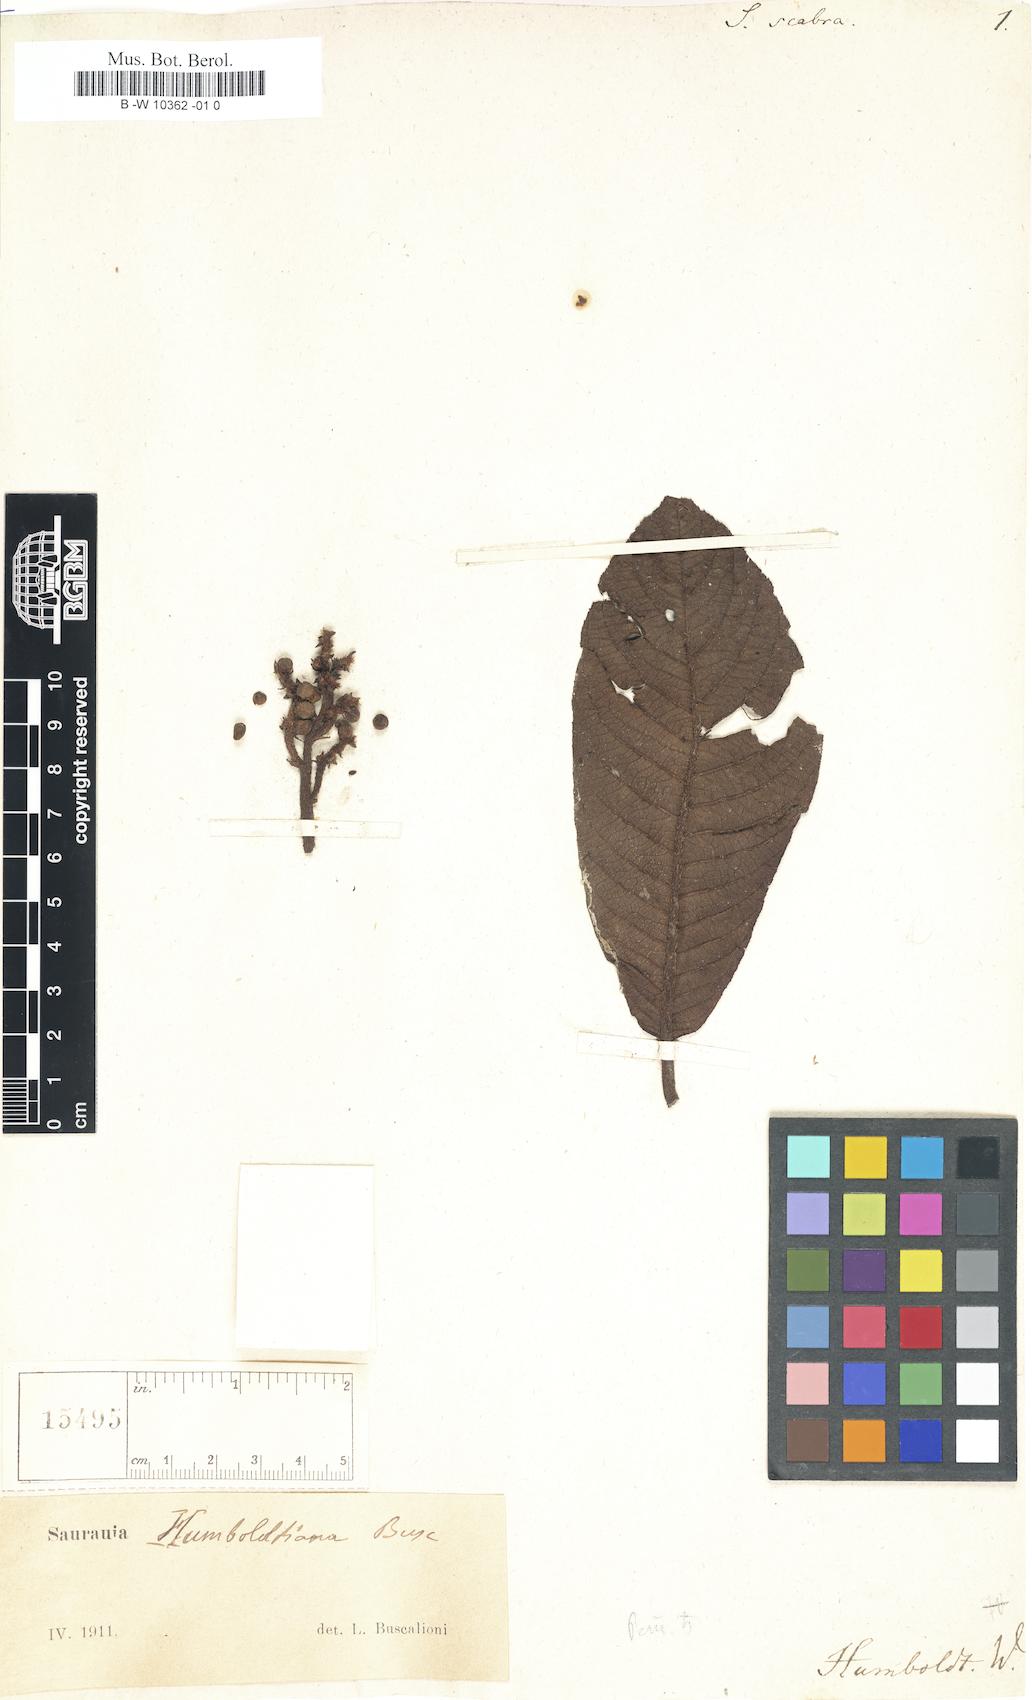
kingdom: Plantae
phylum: Tracheophyta
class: Magnoliopsida
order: Ericales
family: Actinidiaceae
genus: Saurauia
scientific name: Saurauia scabra
